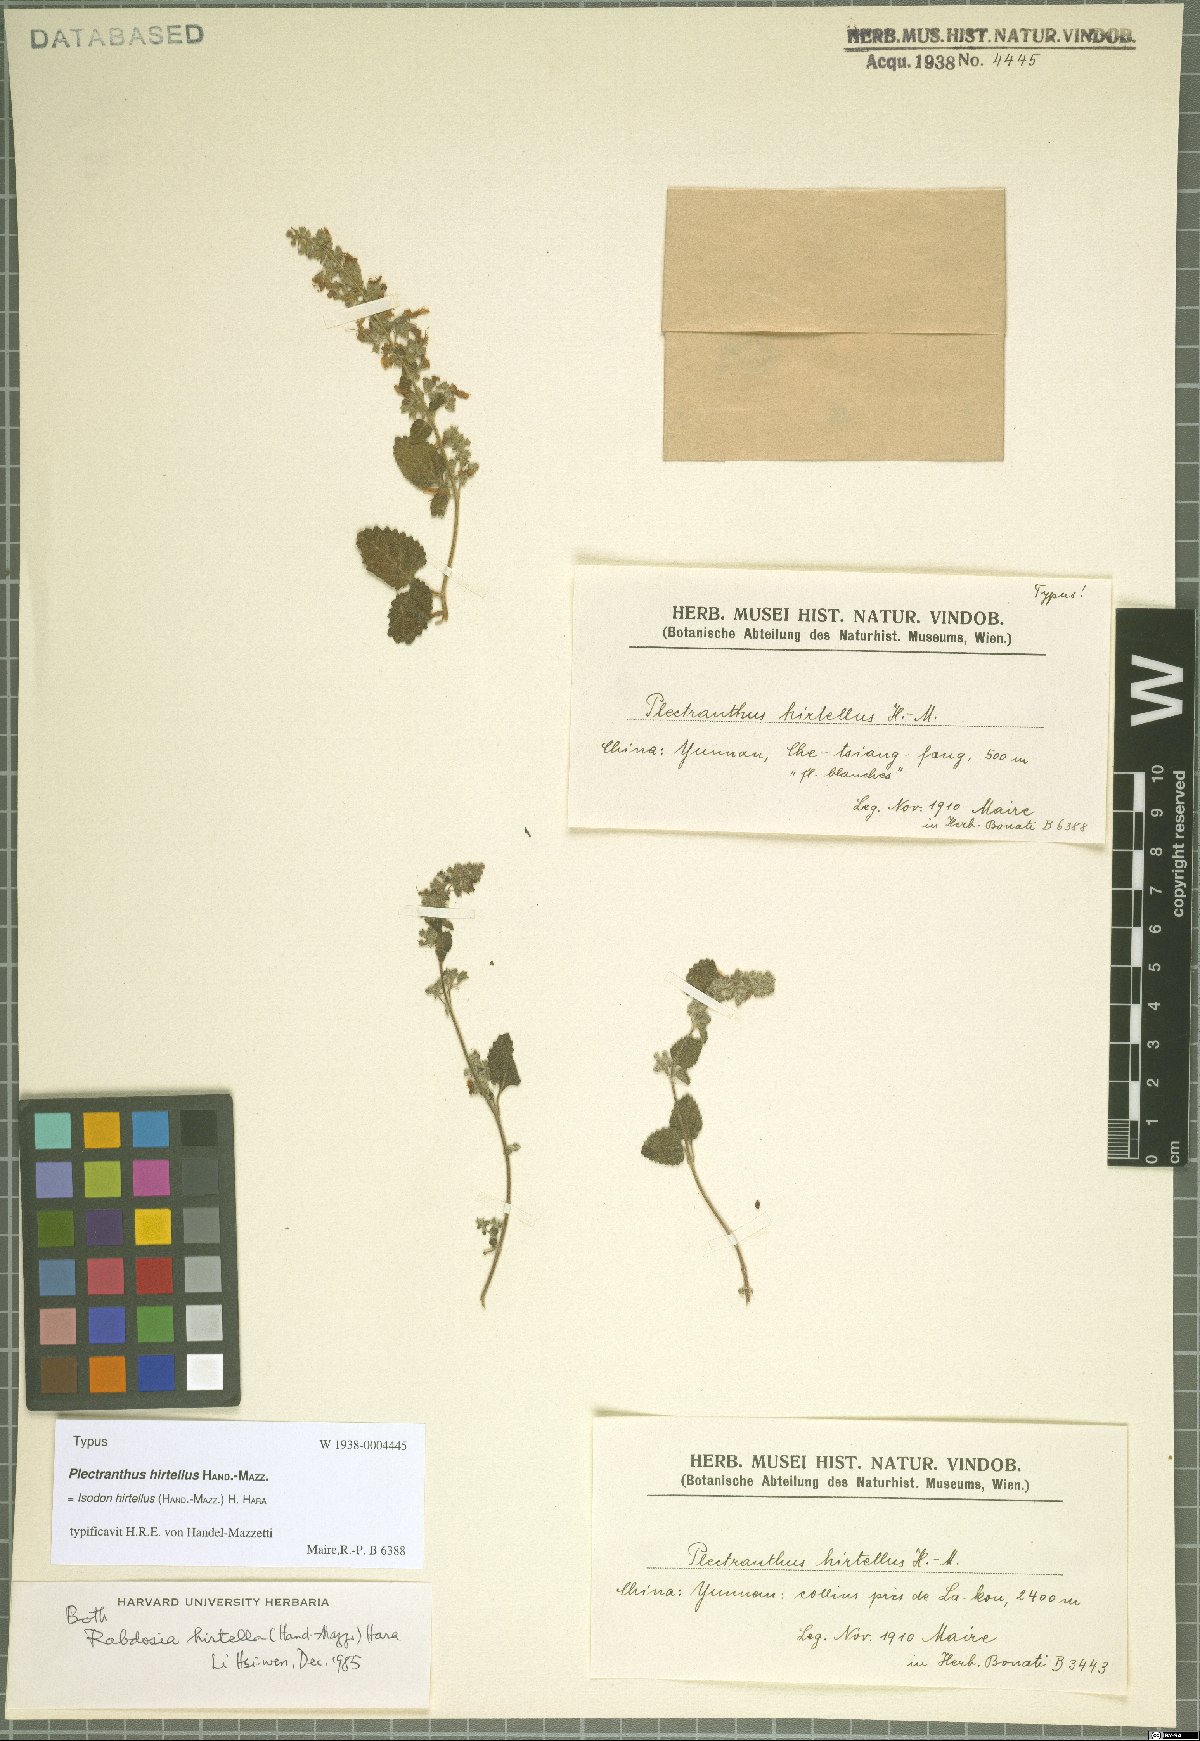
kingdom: Plantae
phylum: Tracheophyta
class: Magnoliopsida
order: Lamiales
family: Lamiaceae
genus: Isodon
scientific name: Isodon hirtellus
